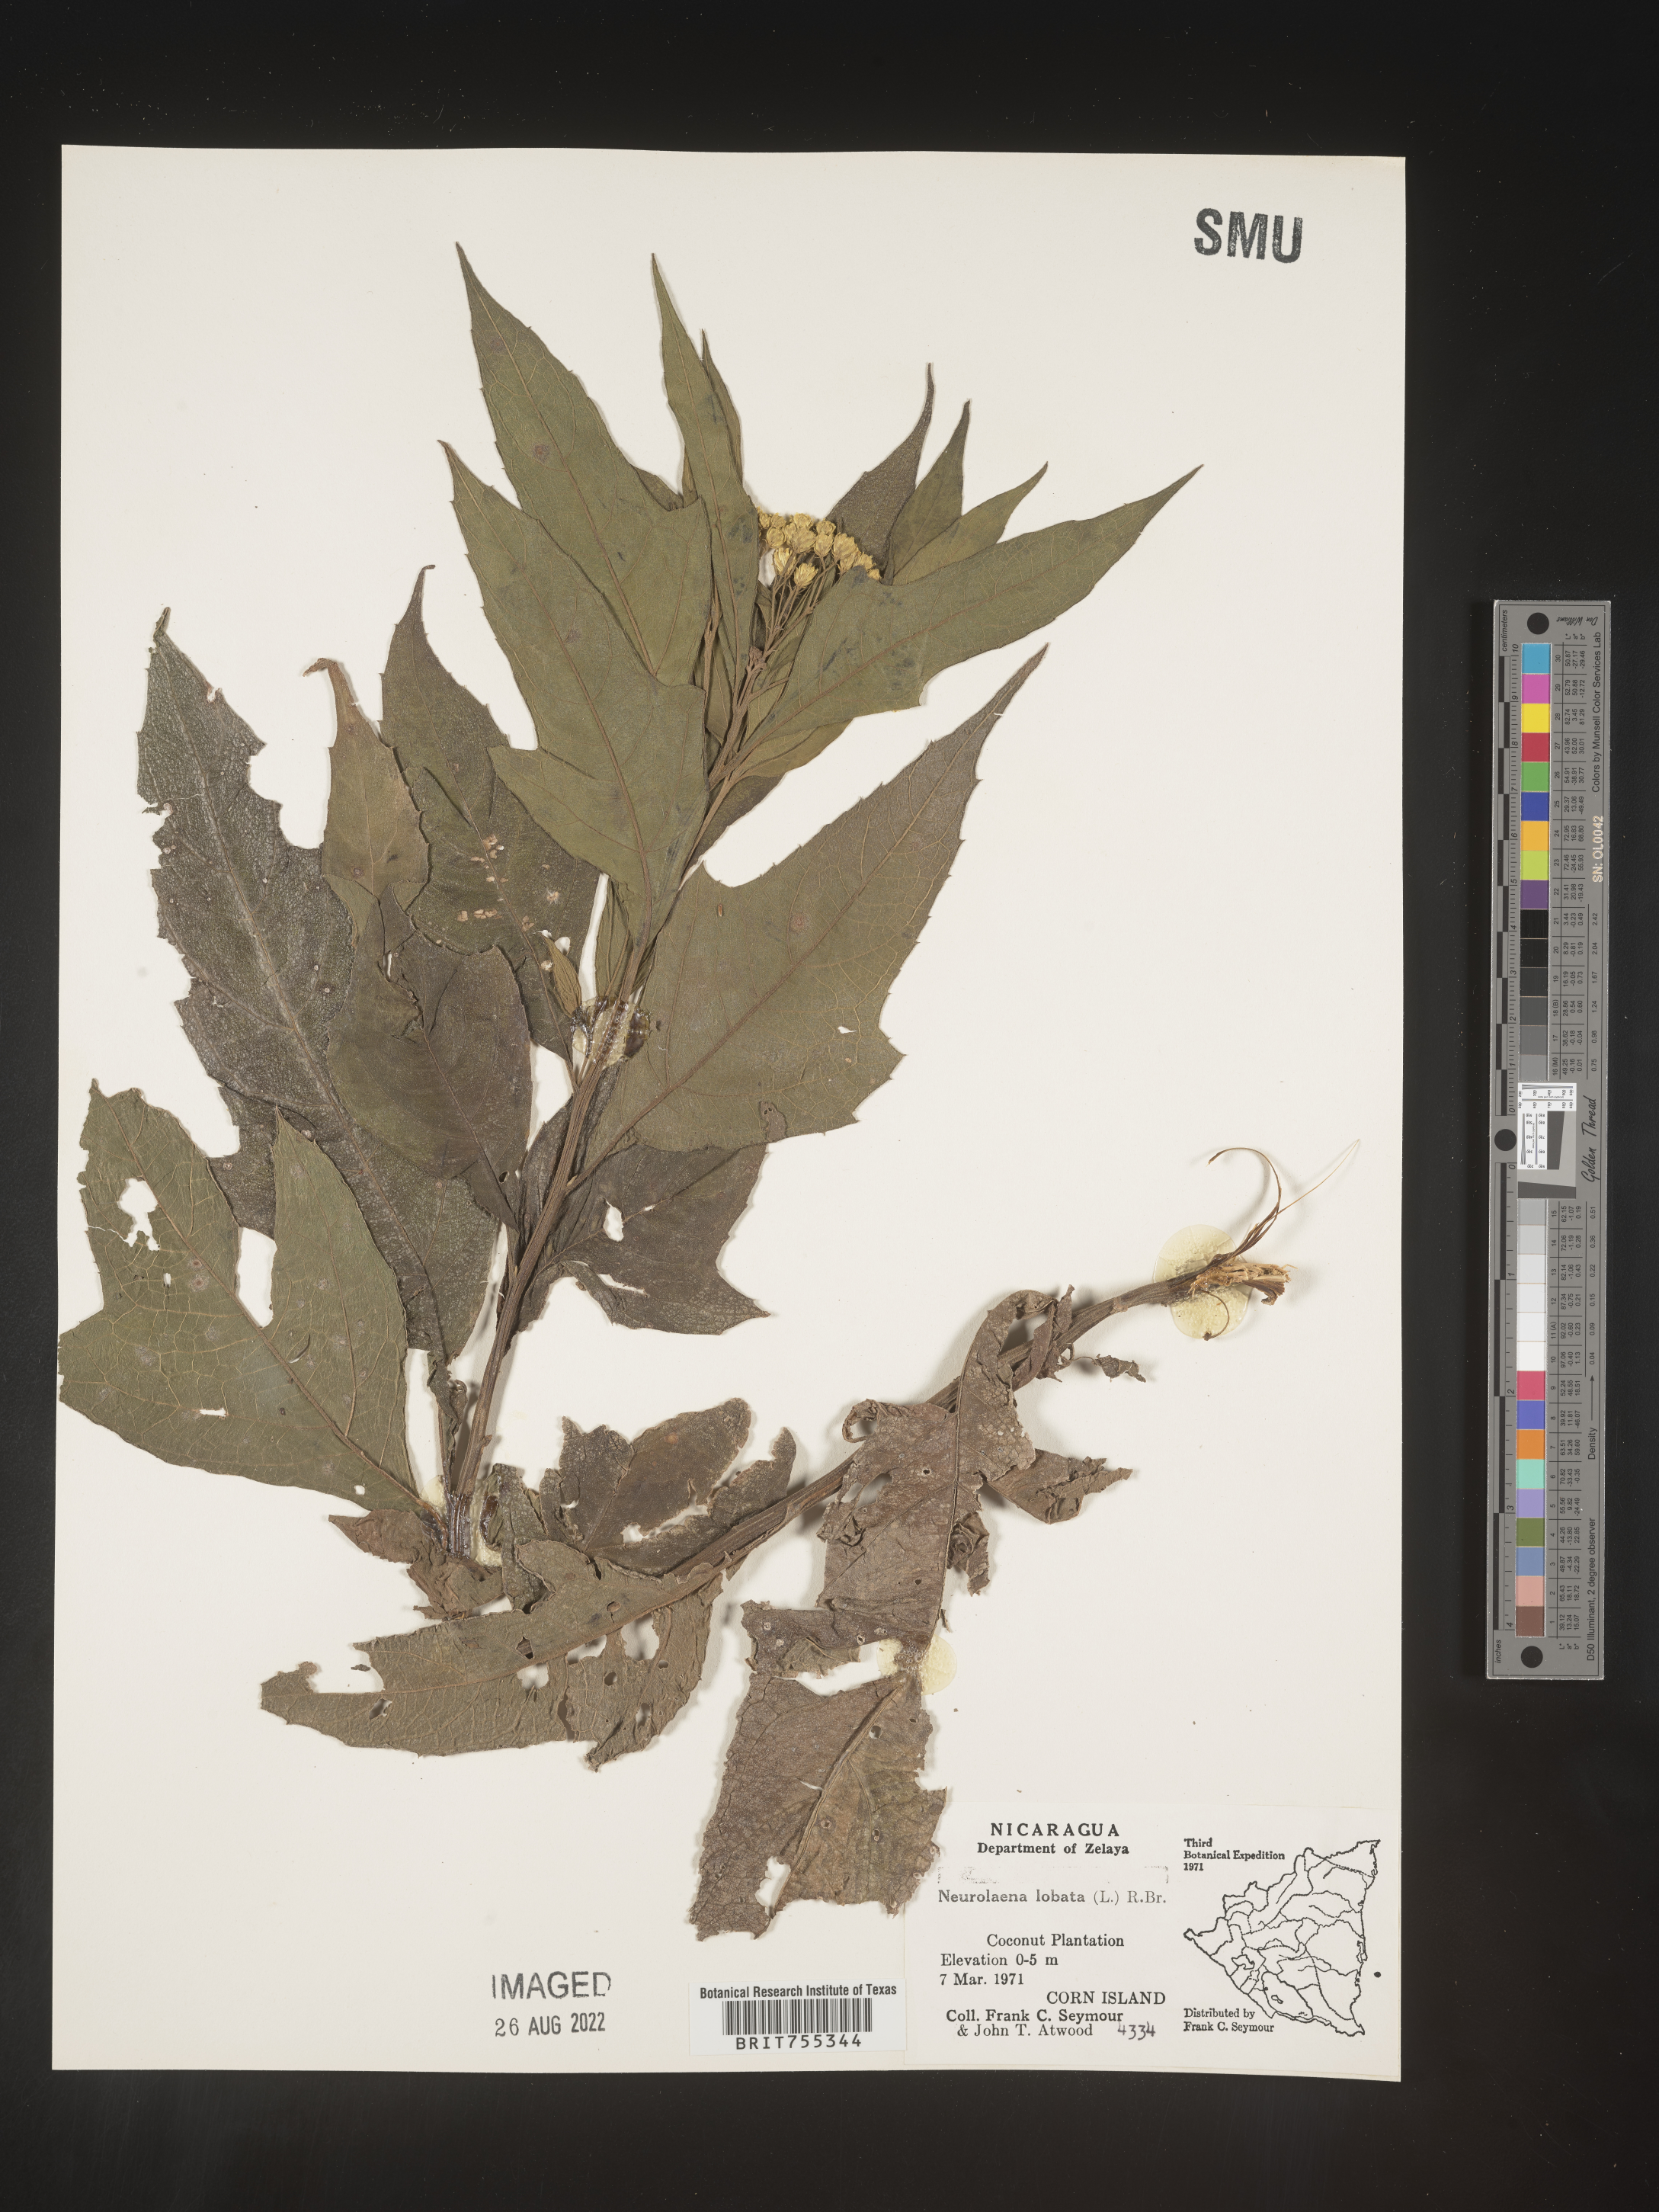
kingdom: Plantae
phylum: Tracheophyta
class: Magnoliopsida
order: Asterales
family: Asteraceae
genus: Neurolaena
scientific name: Neurolaena
